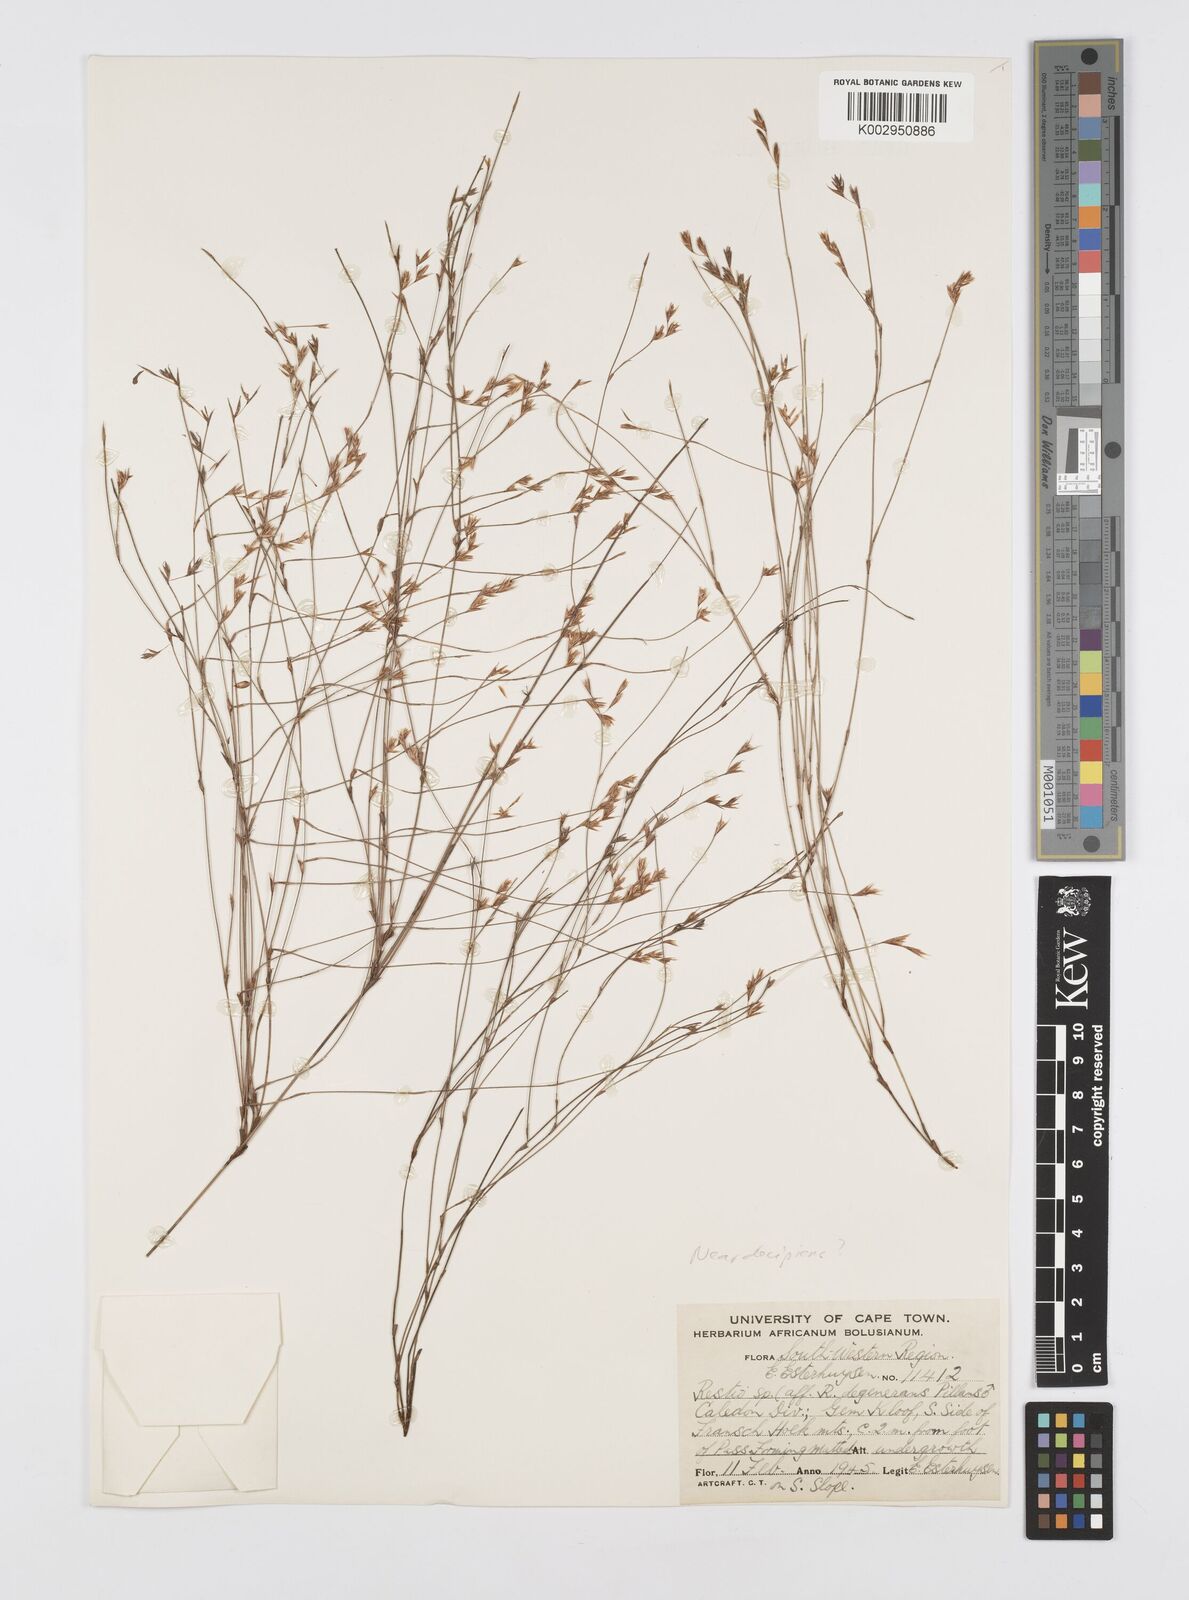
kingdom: Plantae
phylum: Tracheophyta
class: Liliopsida
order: Poales
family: Restionaceae
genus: Restio
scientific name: Restio degenerans
